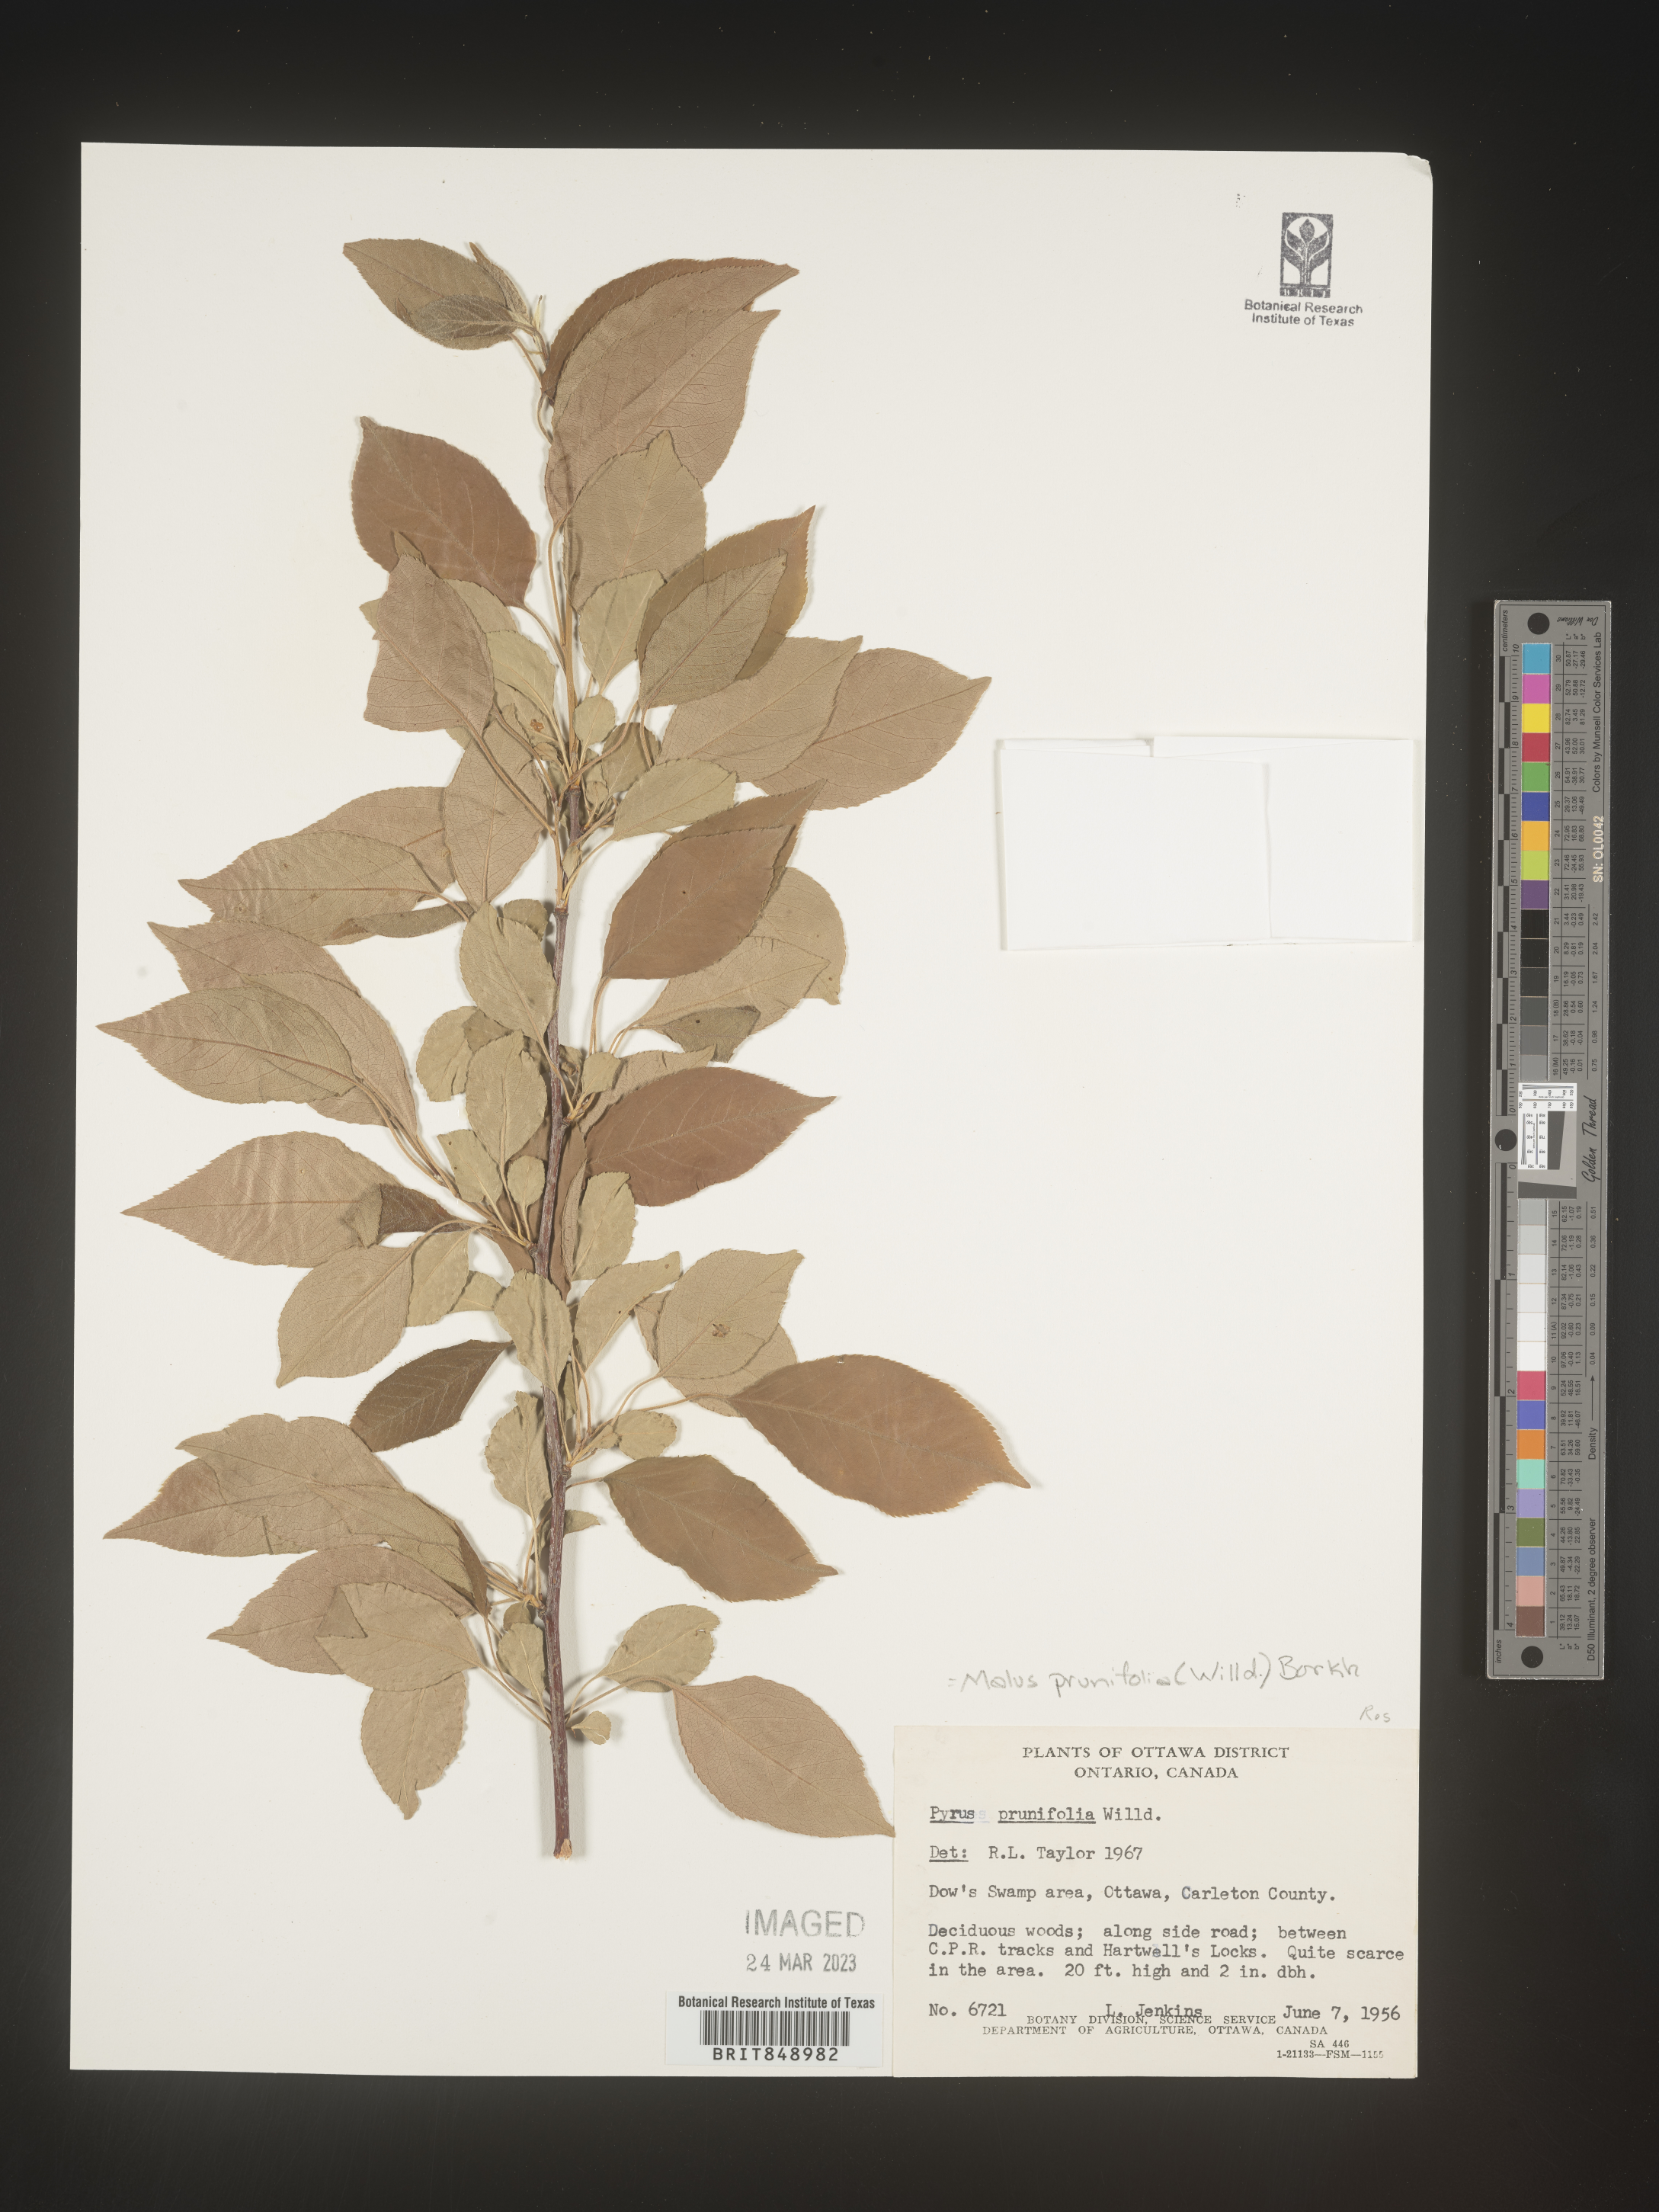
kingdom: Plantae
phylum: Tracheophyta
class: Magnoliopsida
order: Rosales
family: Rosaceae
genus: Malus
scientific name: Malus
